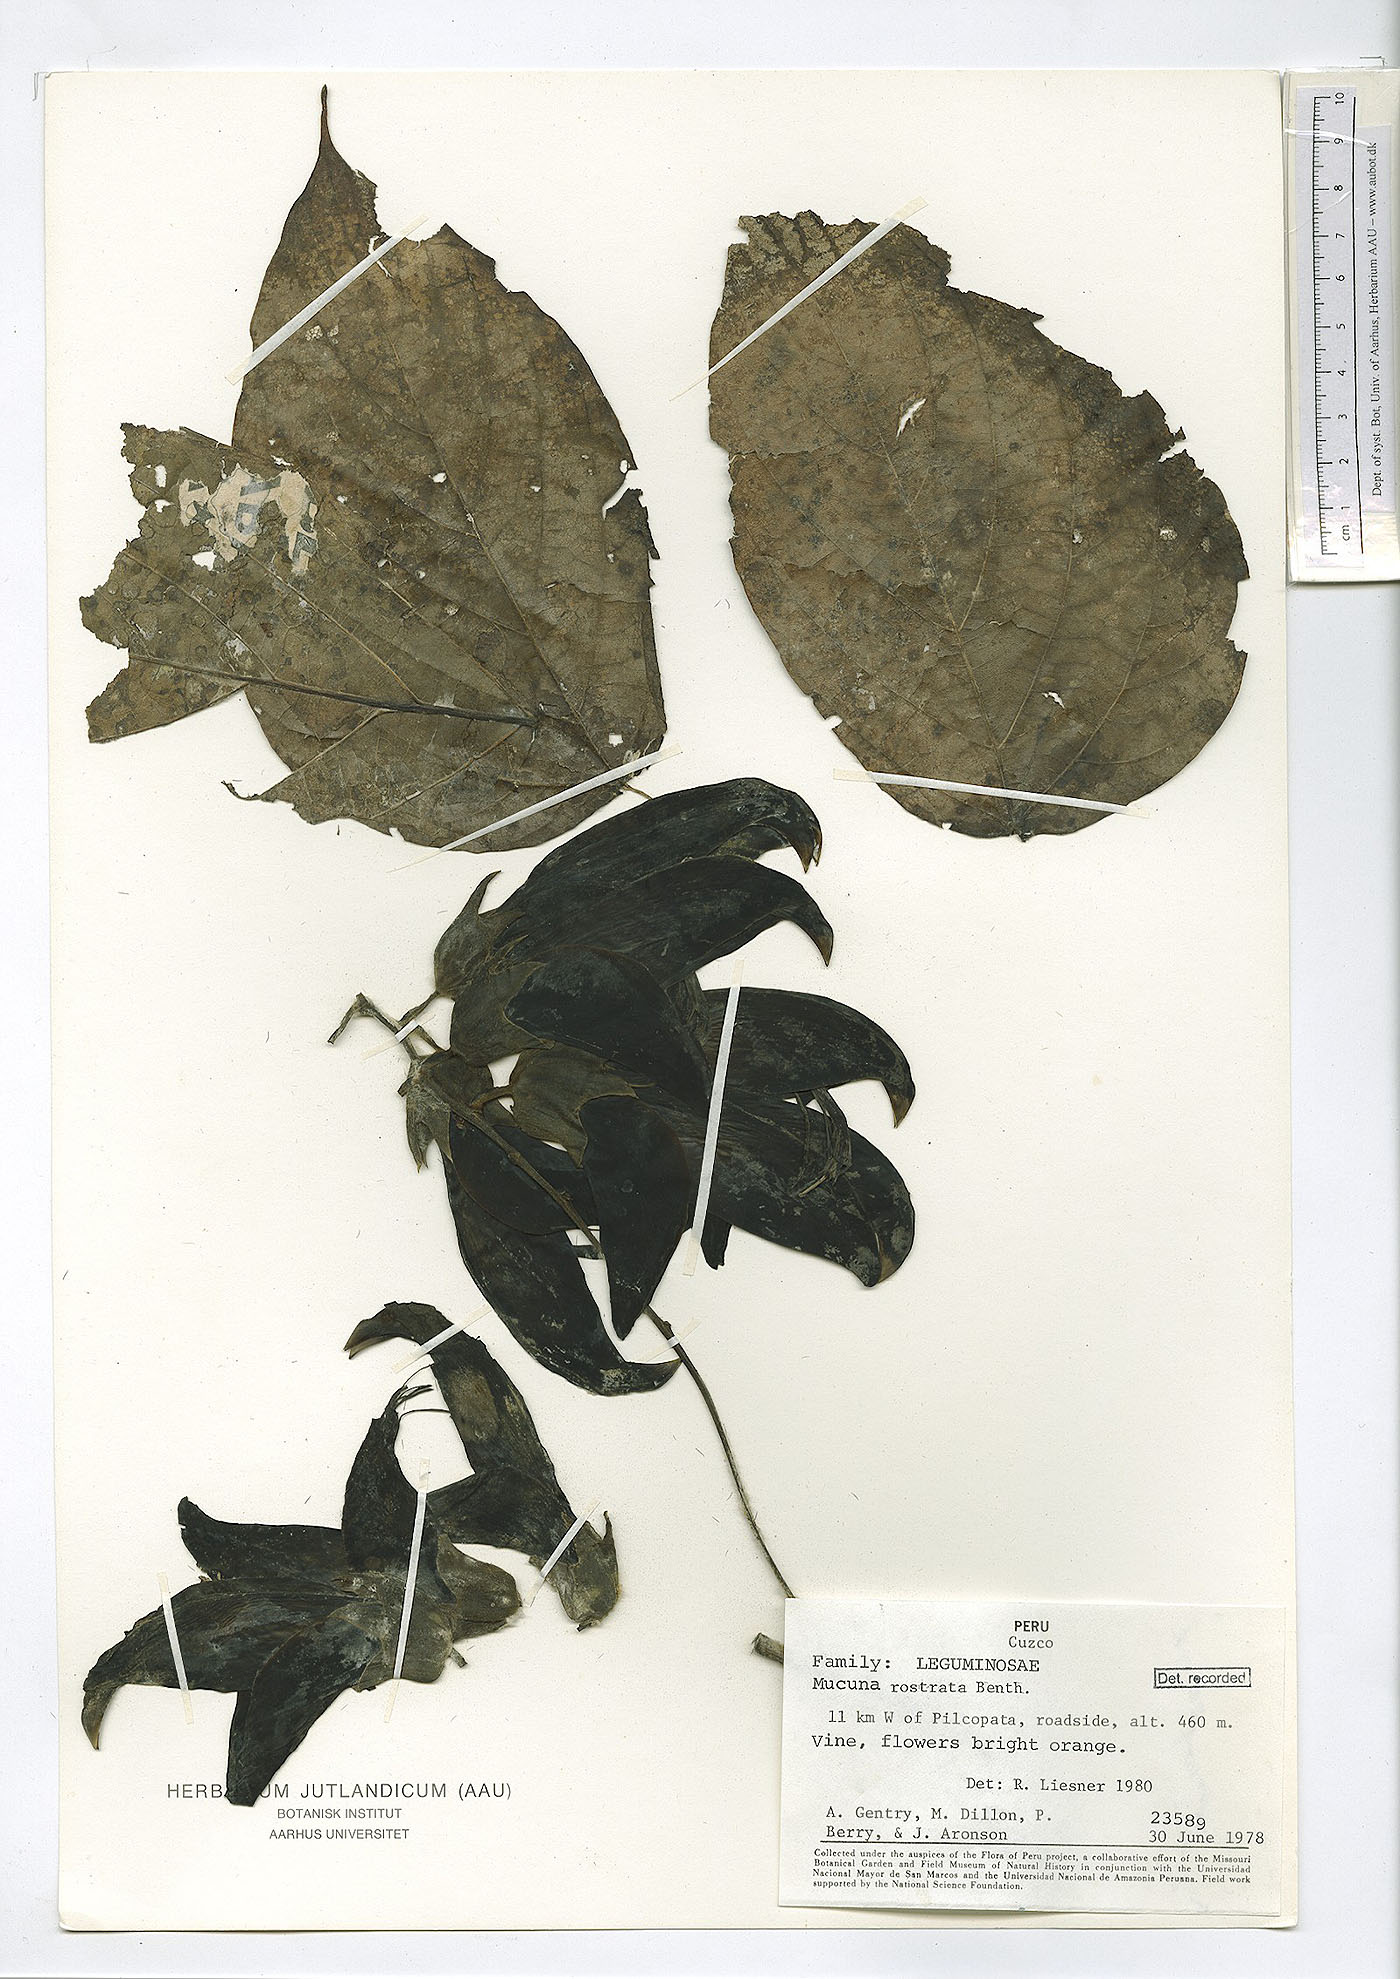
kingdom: Plantae
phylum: Tracheophyta
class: Magnoliopsida
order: Fabales
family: Fabaceae
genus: Mucuna
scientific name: Mucuna rostrata
